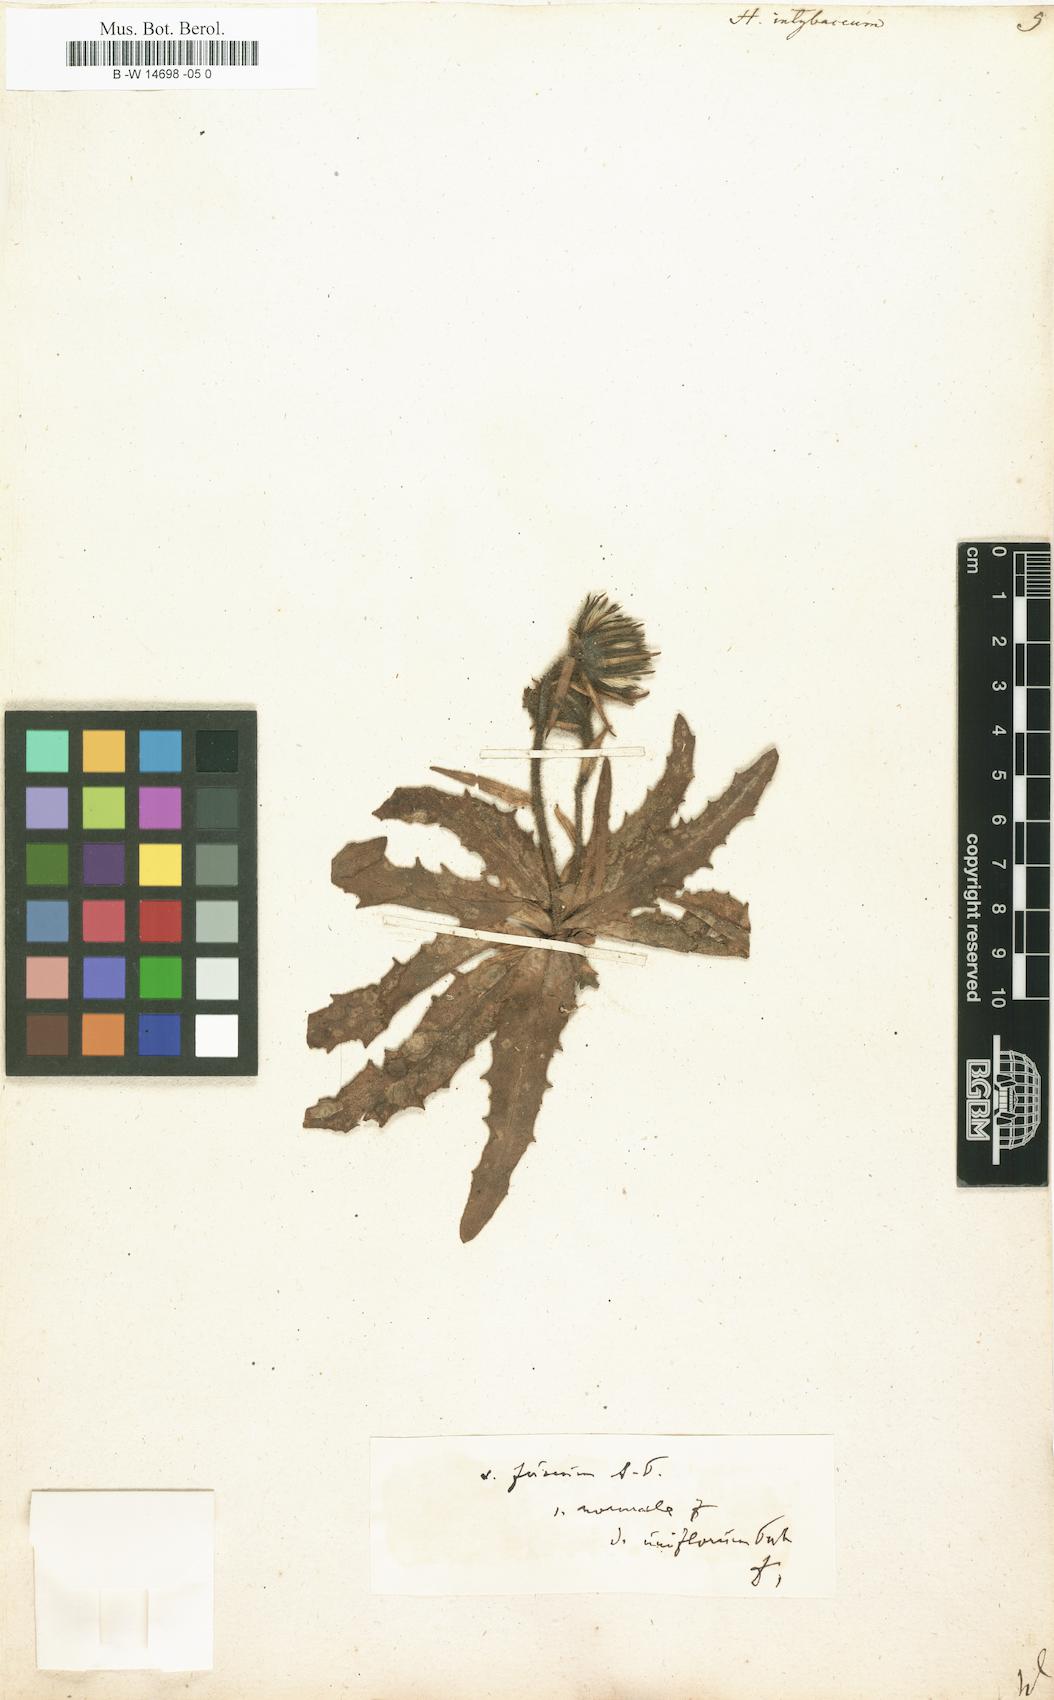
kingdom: Plantae
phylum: Tracheophyta
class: Magnoliopsida
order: Asterales
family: Asteraceae
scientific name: Asteraceae
